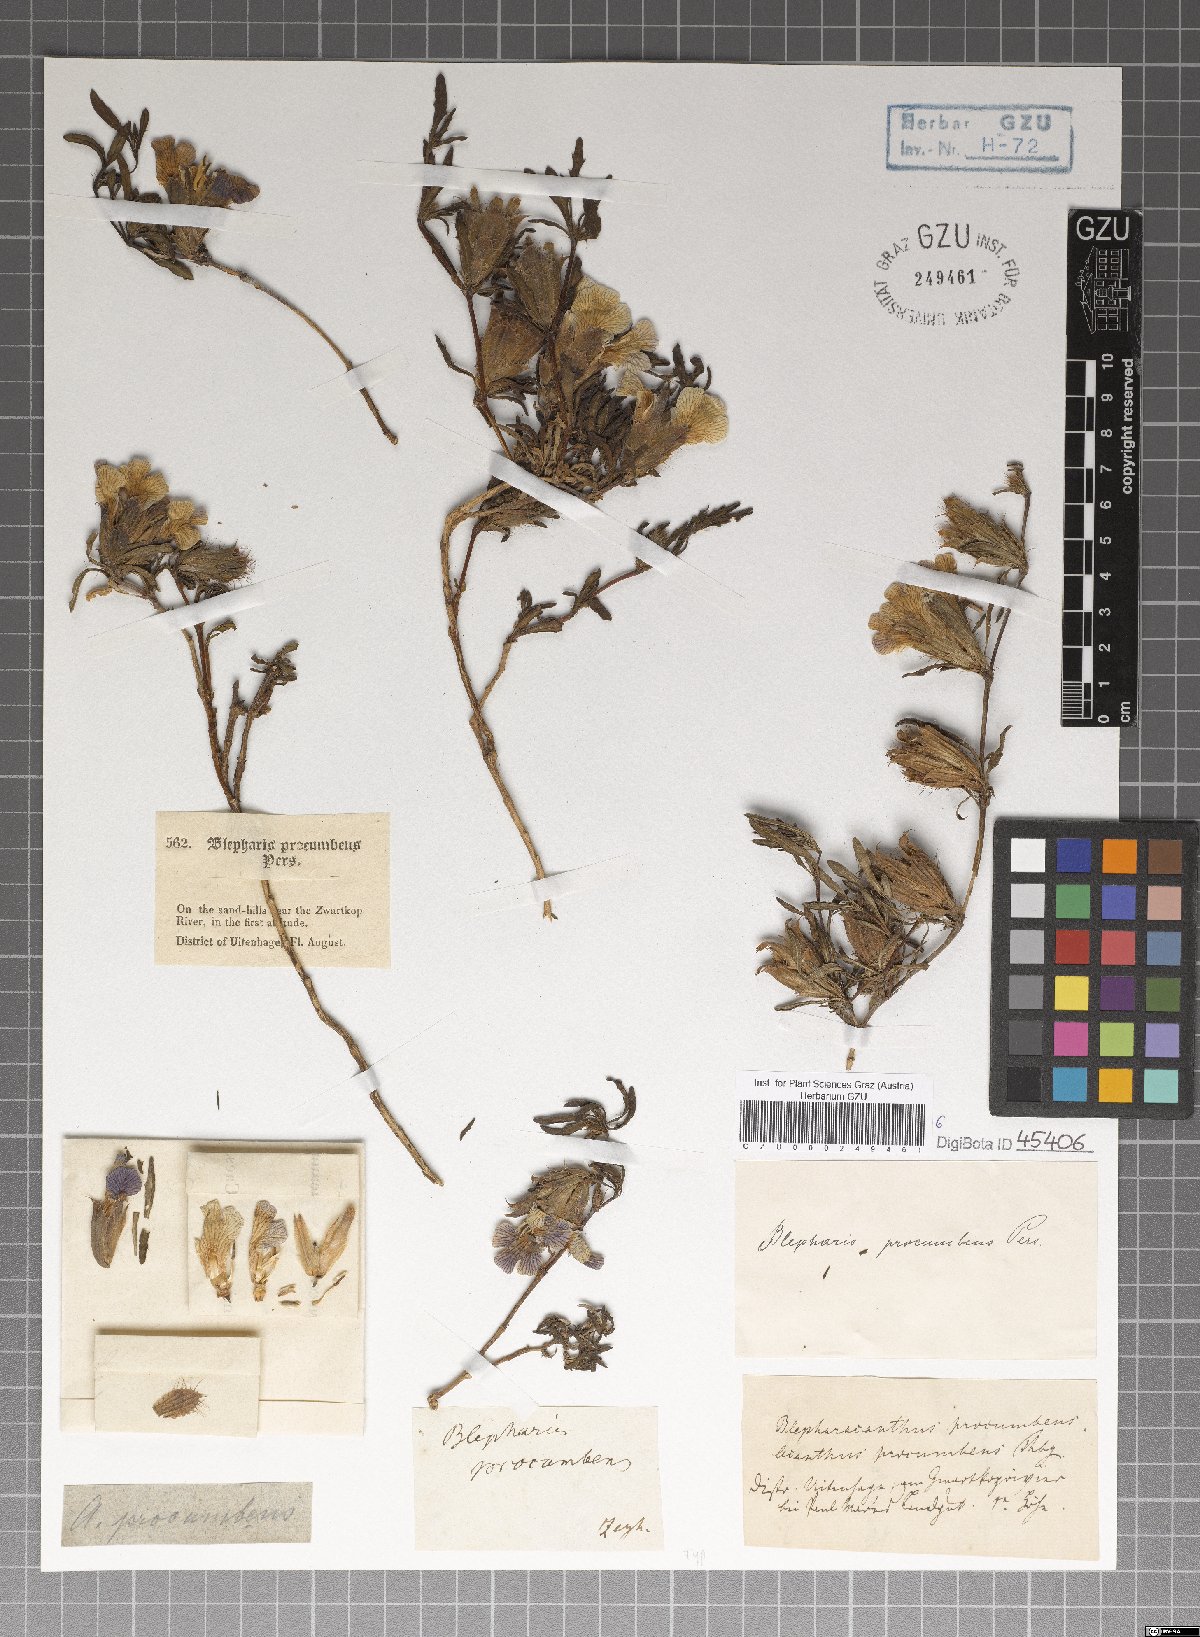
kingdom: Plantae
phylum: Tracheophyta
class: Magnoliopsida
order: Lamiales
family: Acanthaceae
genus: Blepharis
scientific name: Blepharis procumbens
